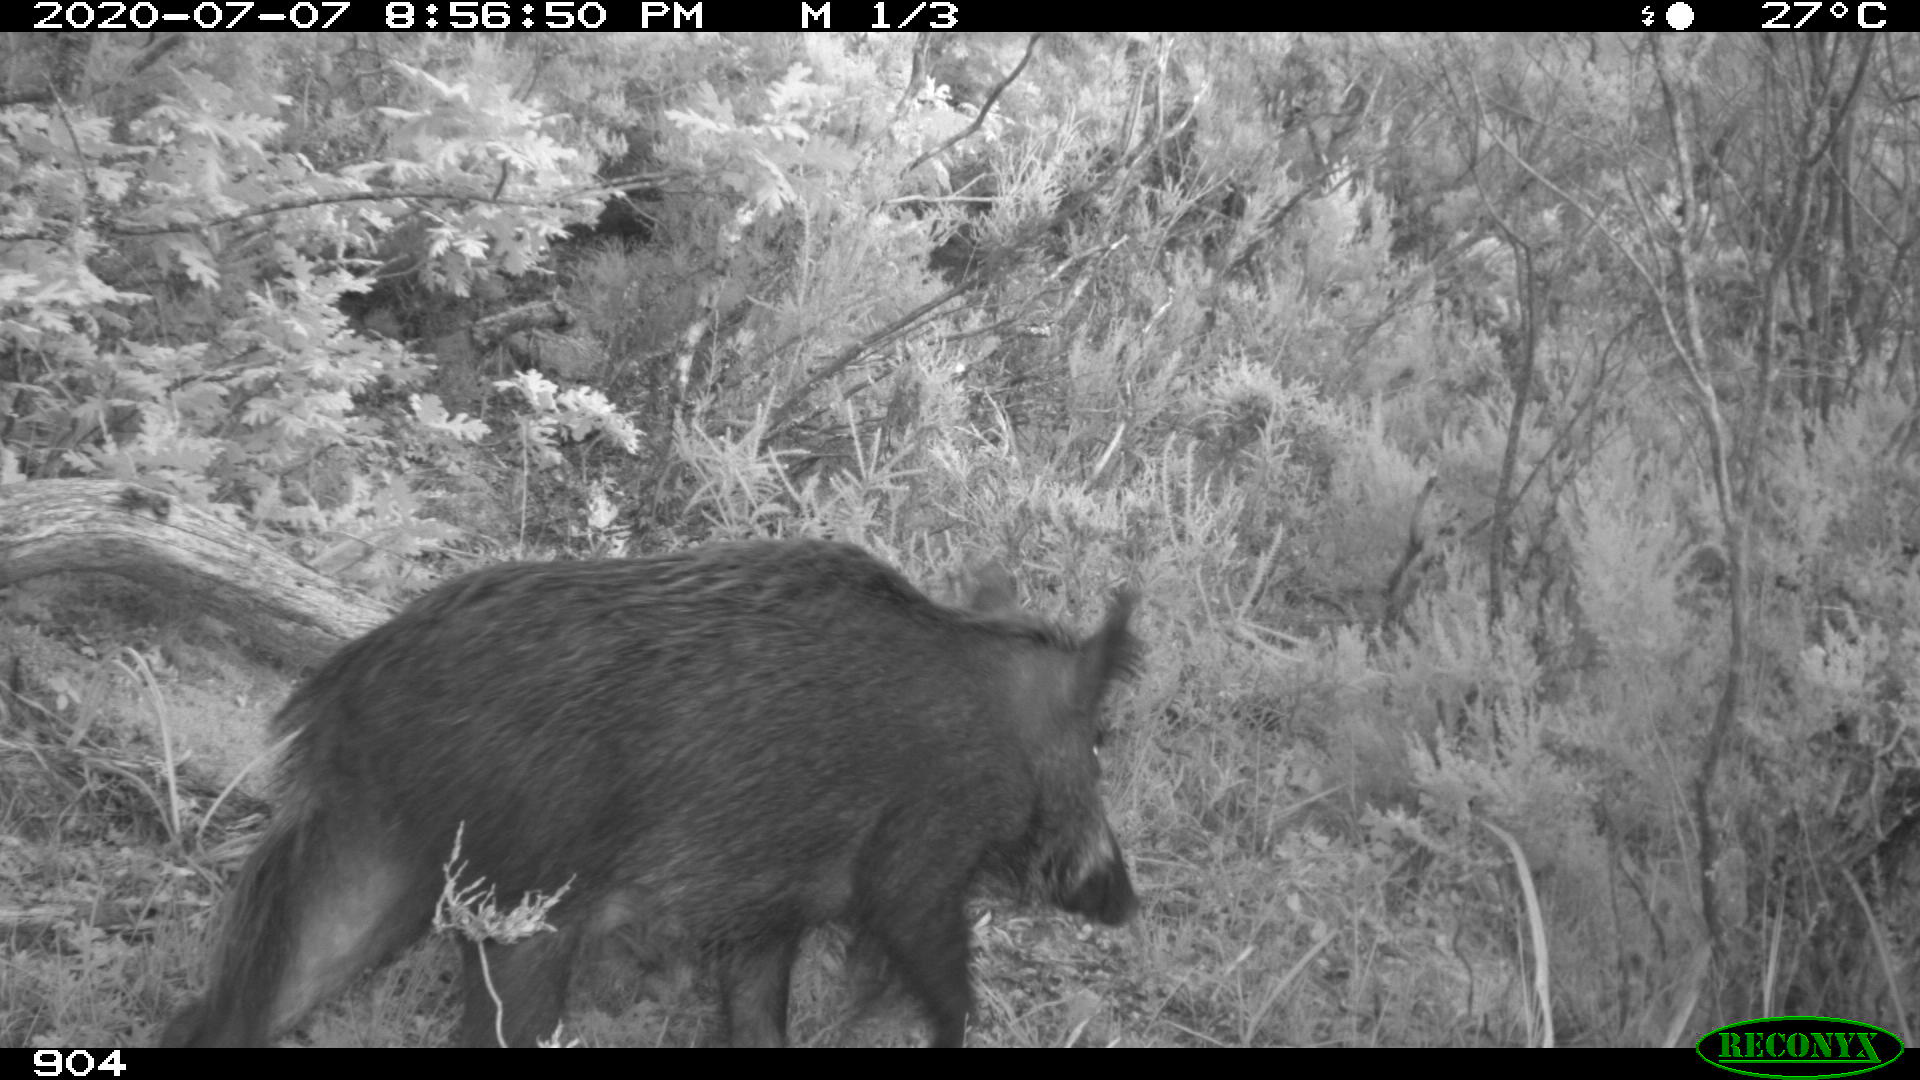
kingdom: Animalia
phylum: Chordata
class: Mammalia
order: Artiodactyla
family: Suidae
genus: Sus
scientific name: Sus scrofa
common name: Wild boar
